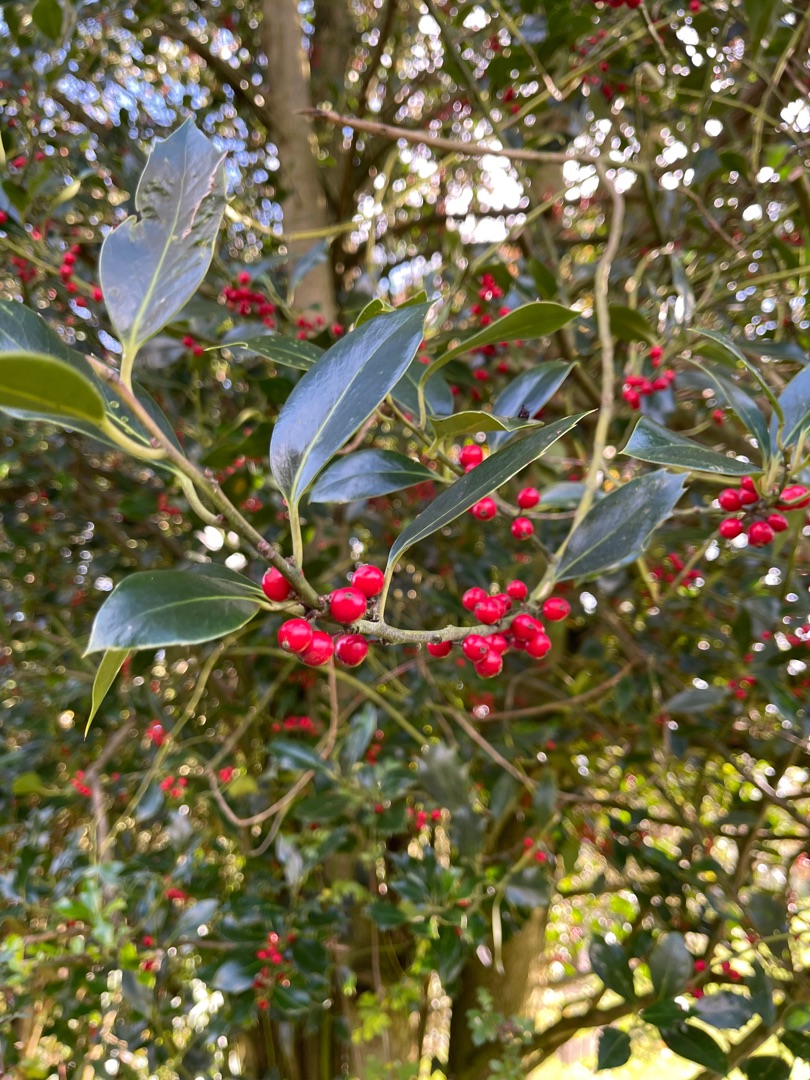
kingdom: Plantae
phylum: Tracheophyta
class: Magnoliopsida
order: Aquifoliales
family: Aquifoliaceae
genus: Ilex
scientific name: Ilex aquifolium
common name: Kristtorn
